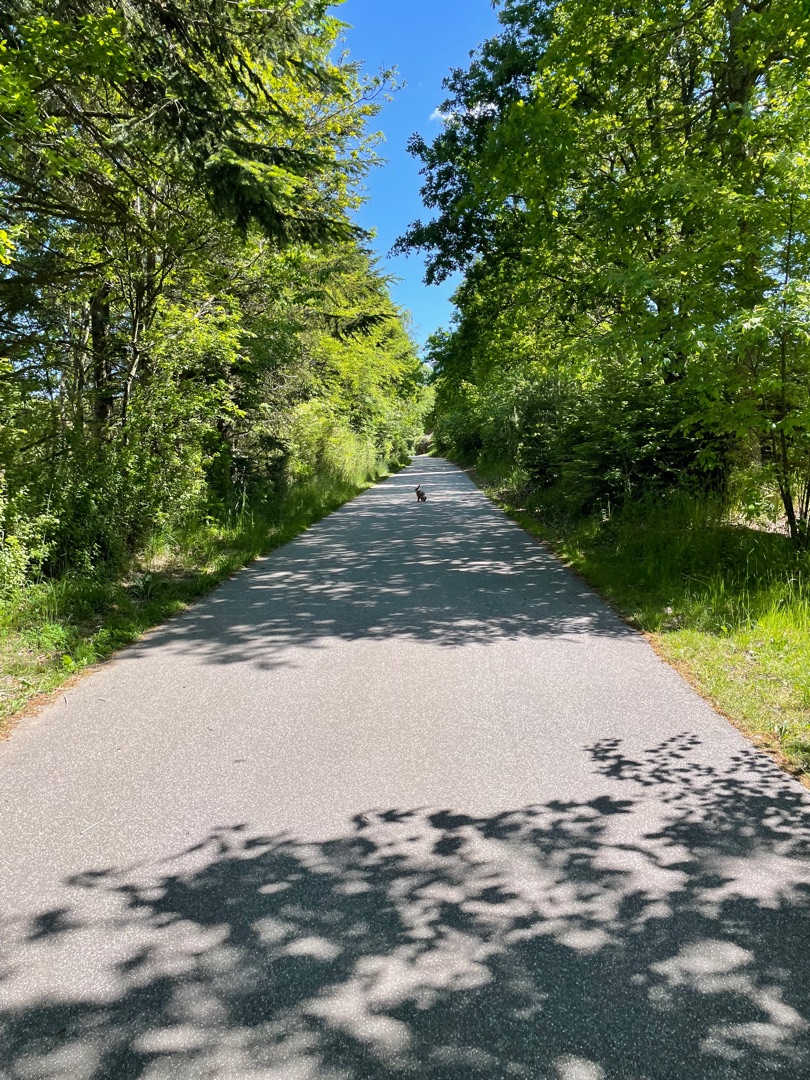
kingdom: Animalia
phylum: Chordata
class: Mammalia
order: Lagomorpha
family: Leporidae
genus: Lepus
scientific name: Lepus europaeus
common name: Hare
